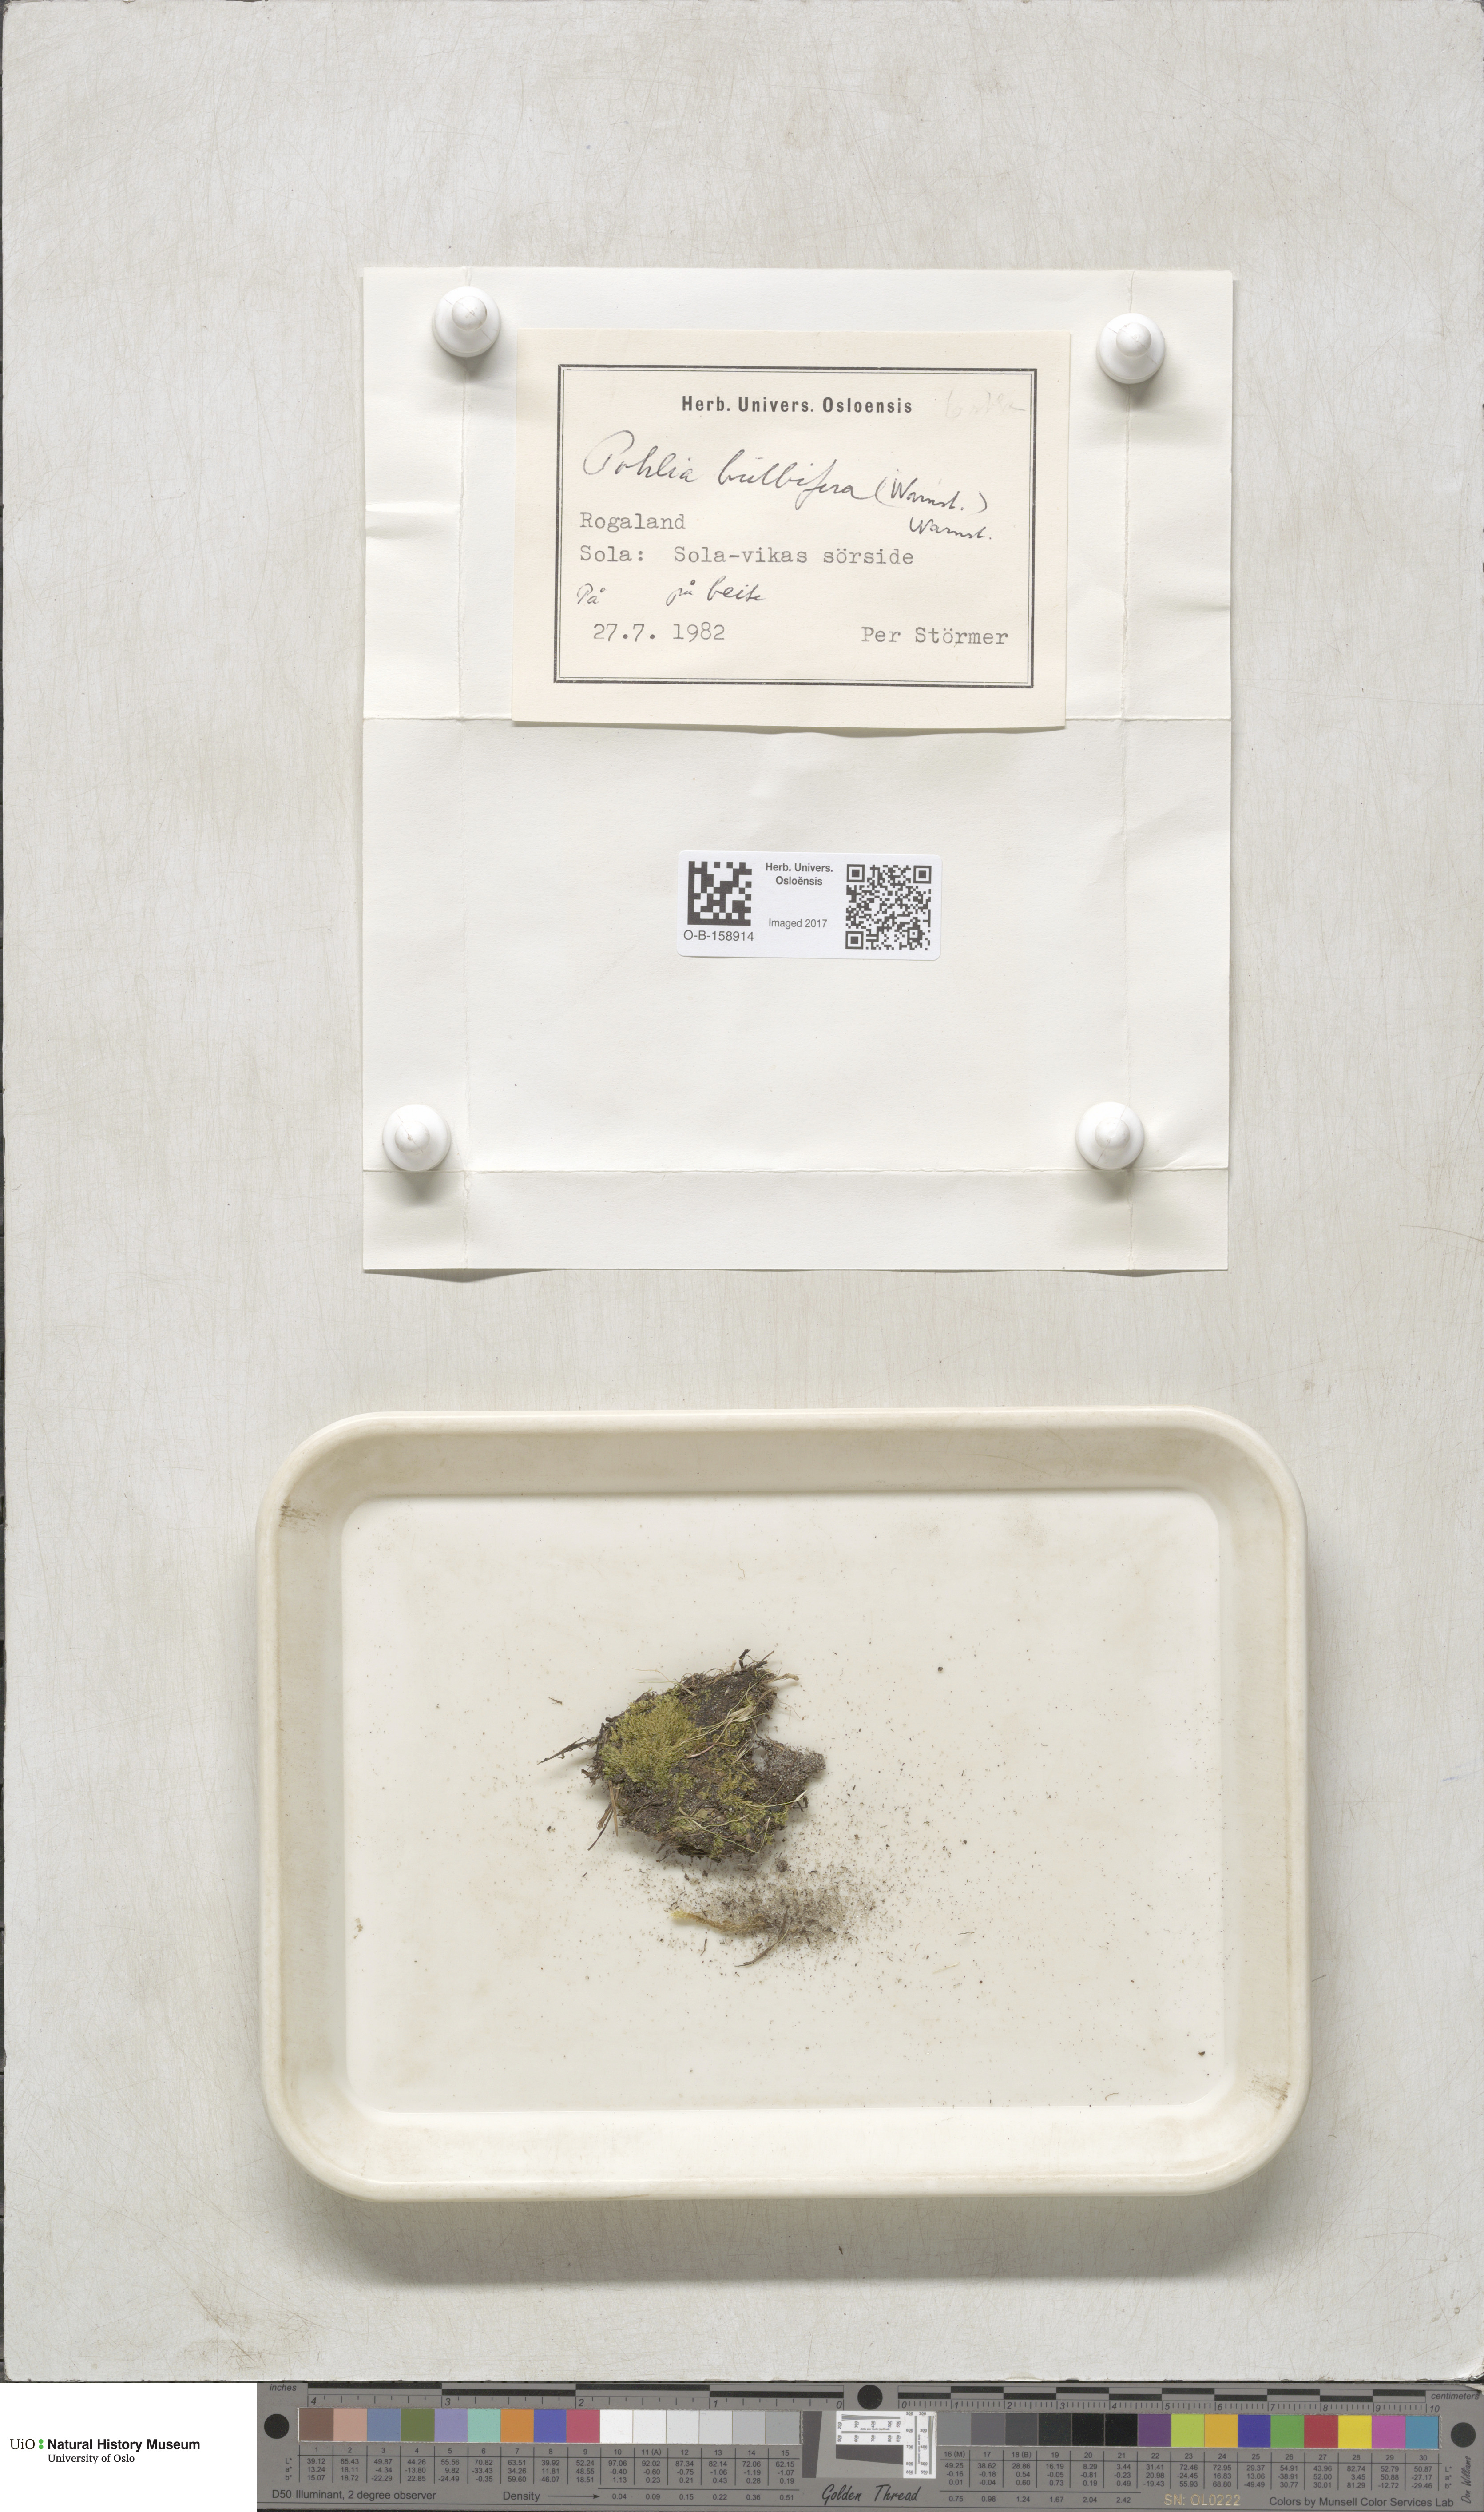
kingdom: Plantae
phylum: Bryophyta
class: Bryopsida
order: Bryales
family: Mniaceae
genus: Pohlia
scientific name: Pohlia bulbifera
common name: Blunt-bud nodding moss
